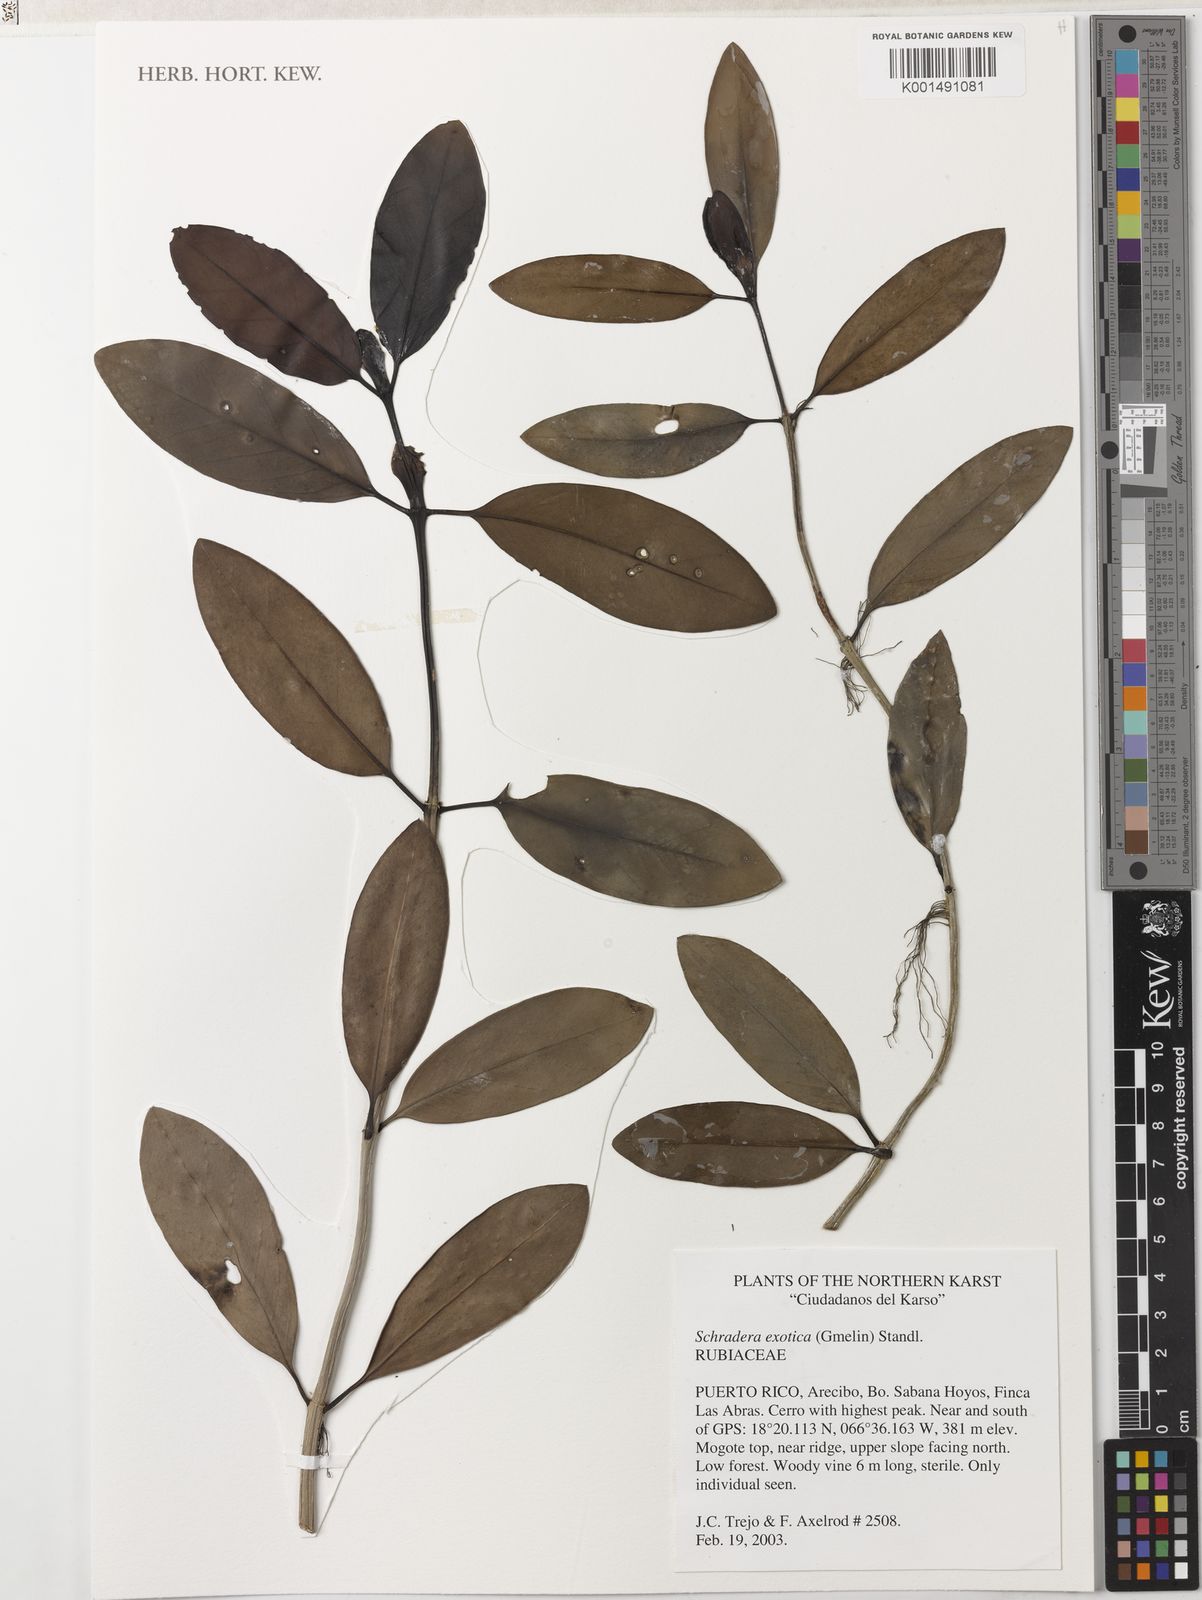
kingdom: Plantae
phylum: Tracheophyta
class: Magnoliopsida
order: Gentianales
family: Rubiaceae
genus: Schradera
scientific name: Schradera exotica
